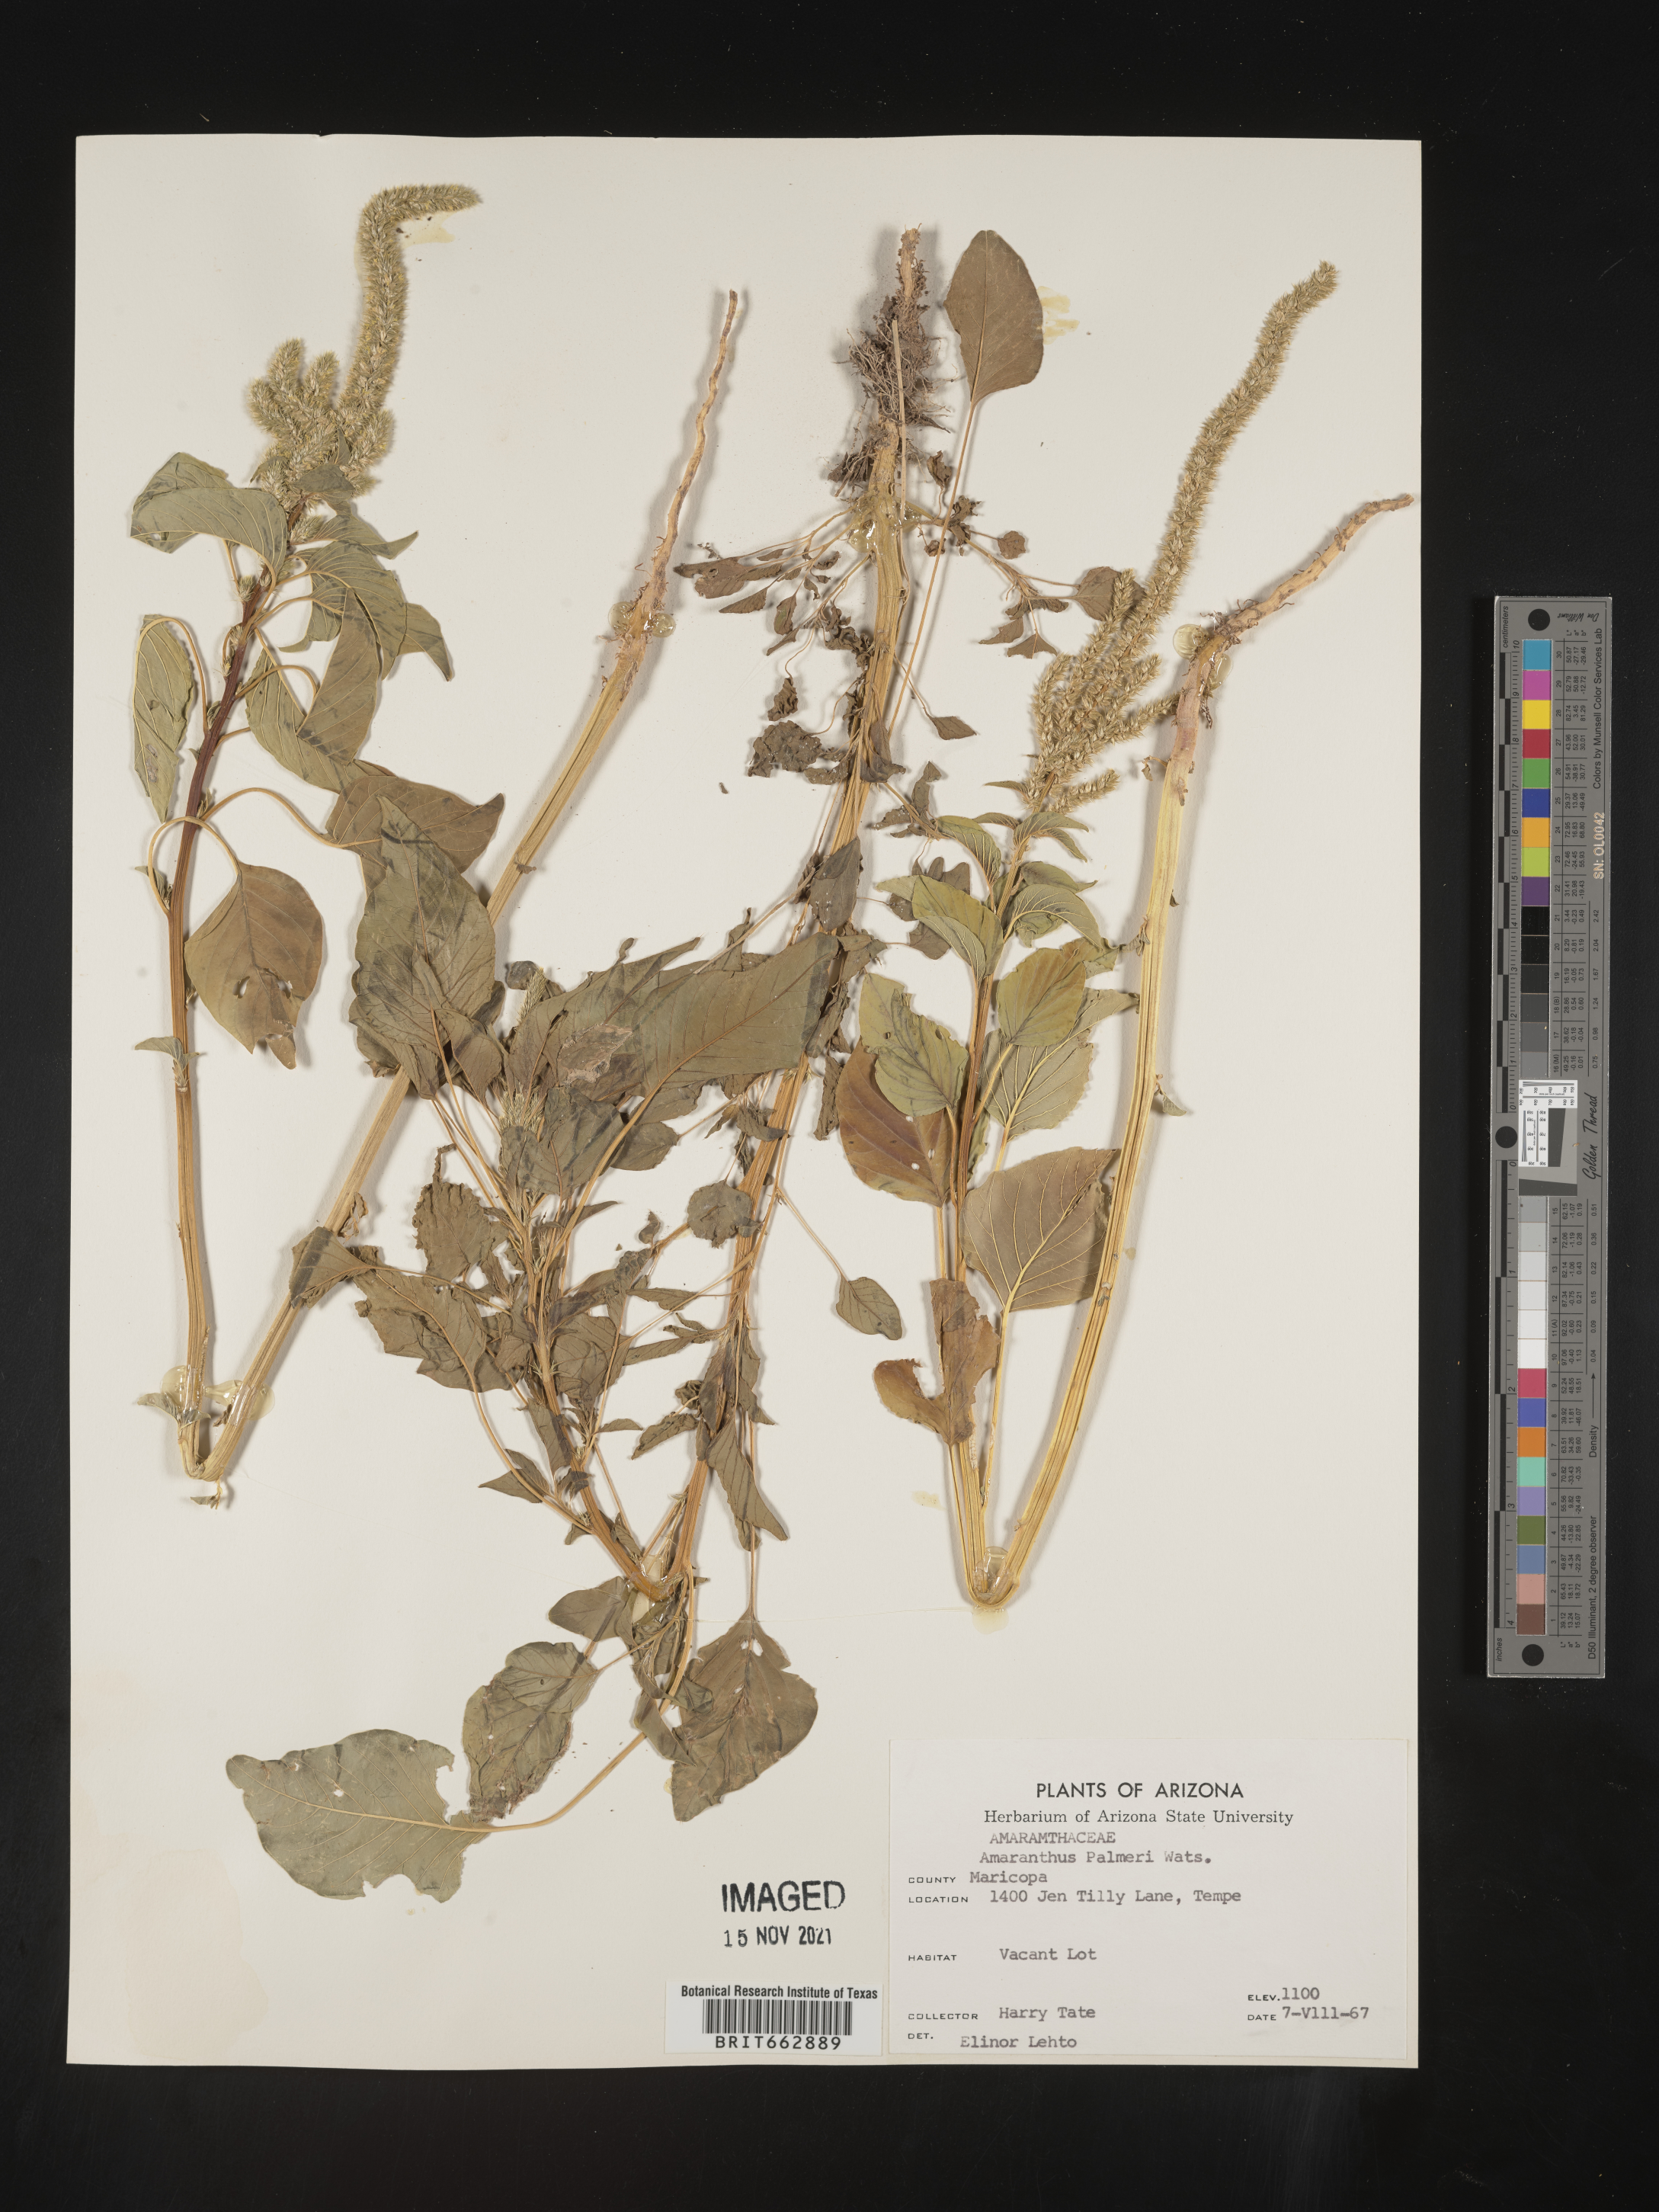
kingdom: Plantae
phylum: Tracheophyta
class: Magnoliopsida
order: Caryophyllales
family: Amaranthaceae
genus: Amaranthus
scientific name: Amaranthus palmeri
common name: Dioecious amaranth
